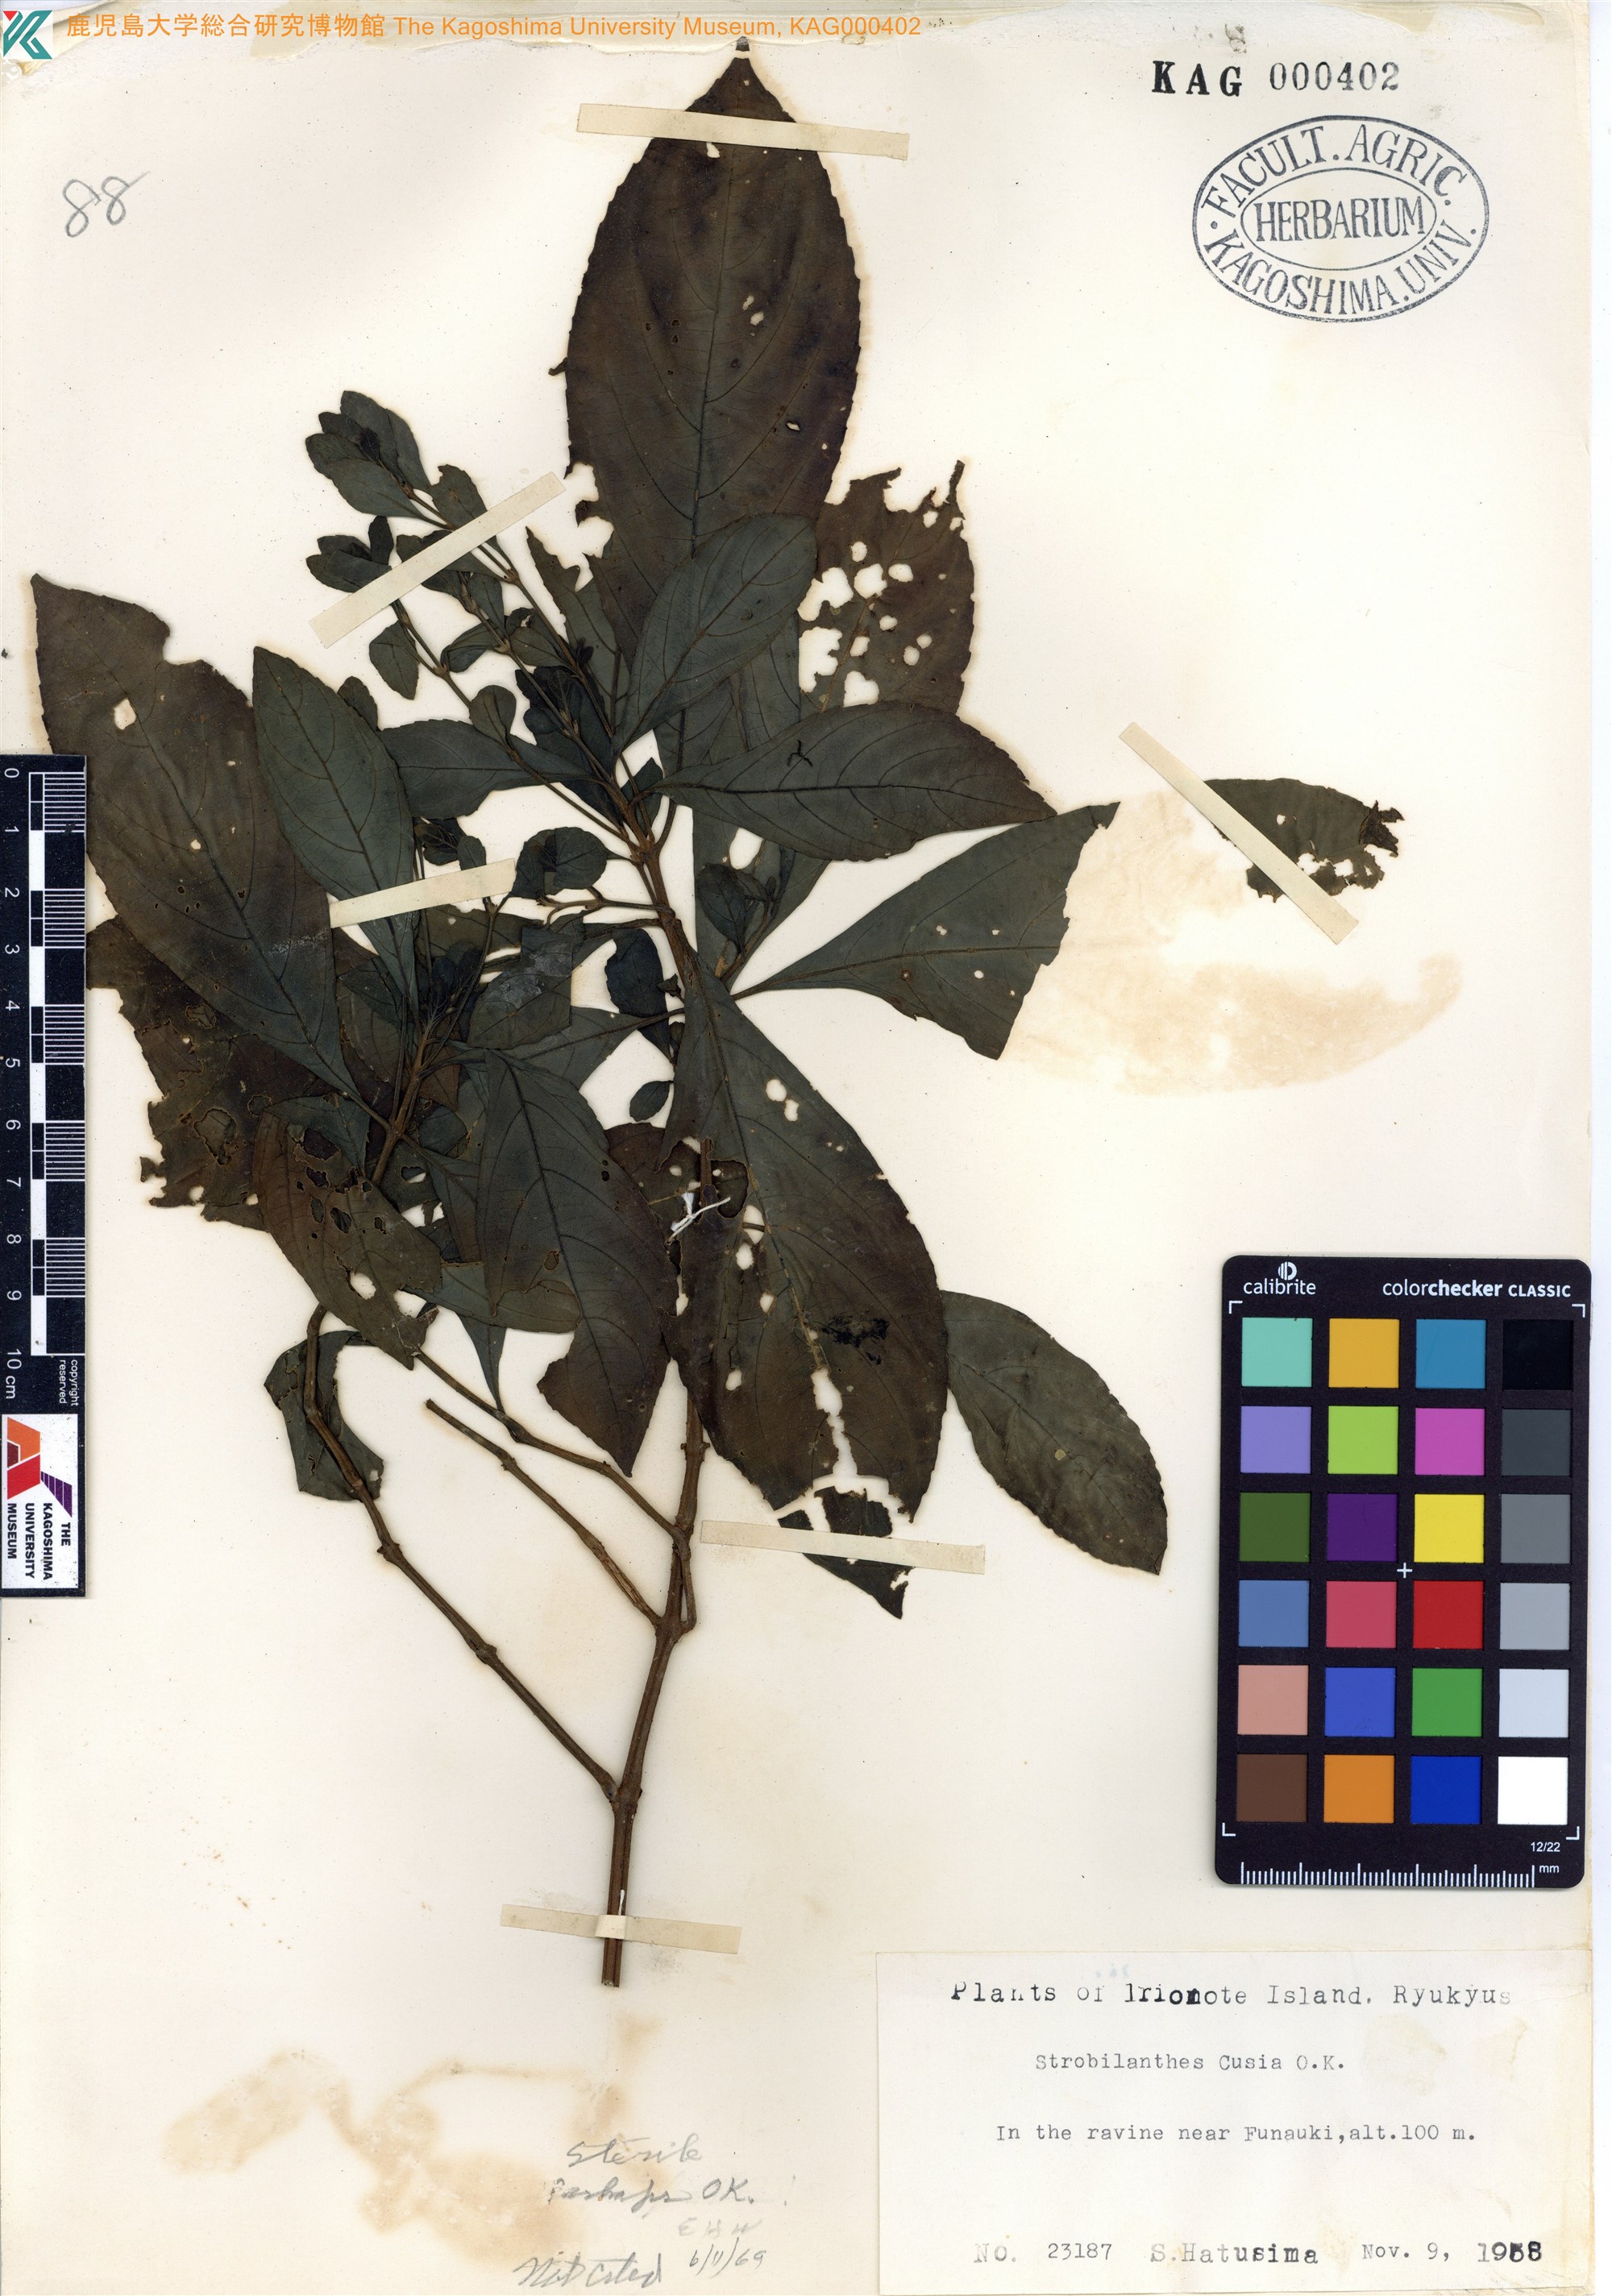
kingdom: Plantae
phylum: Tracheophyta
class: Magnoliopsida
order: Lamiales
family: Acanthaceae
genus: Strobilanthes
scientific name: Strobilanthes cusia
